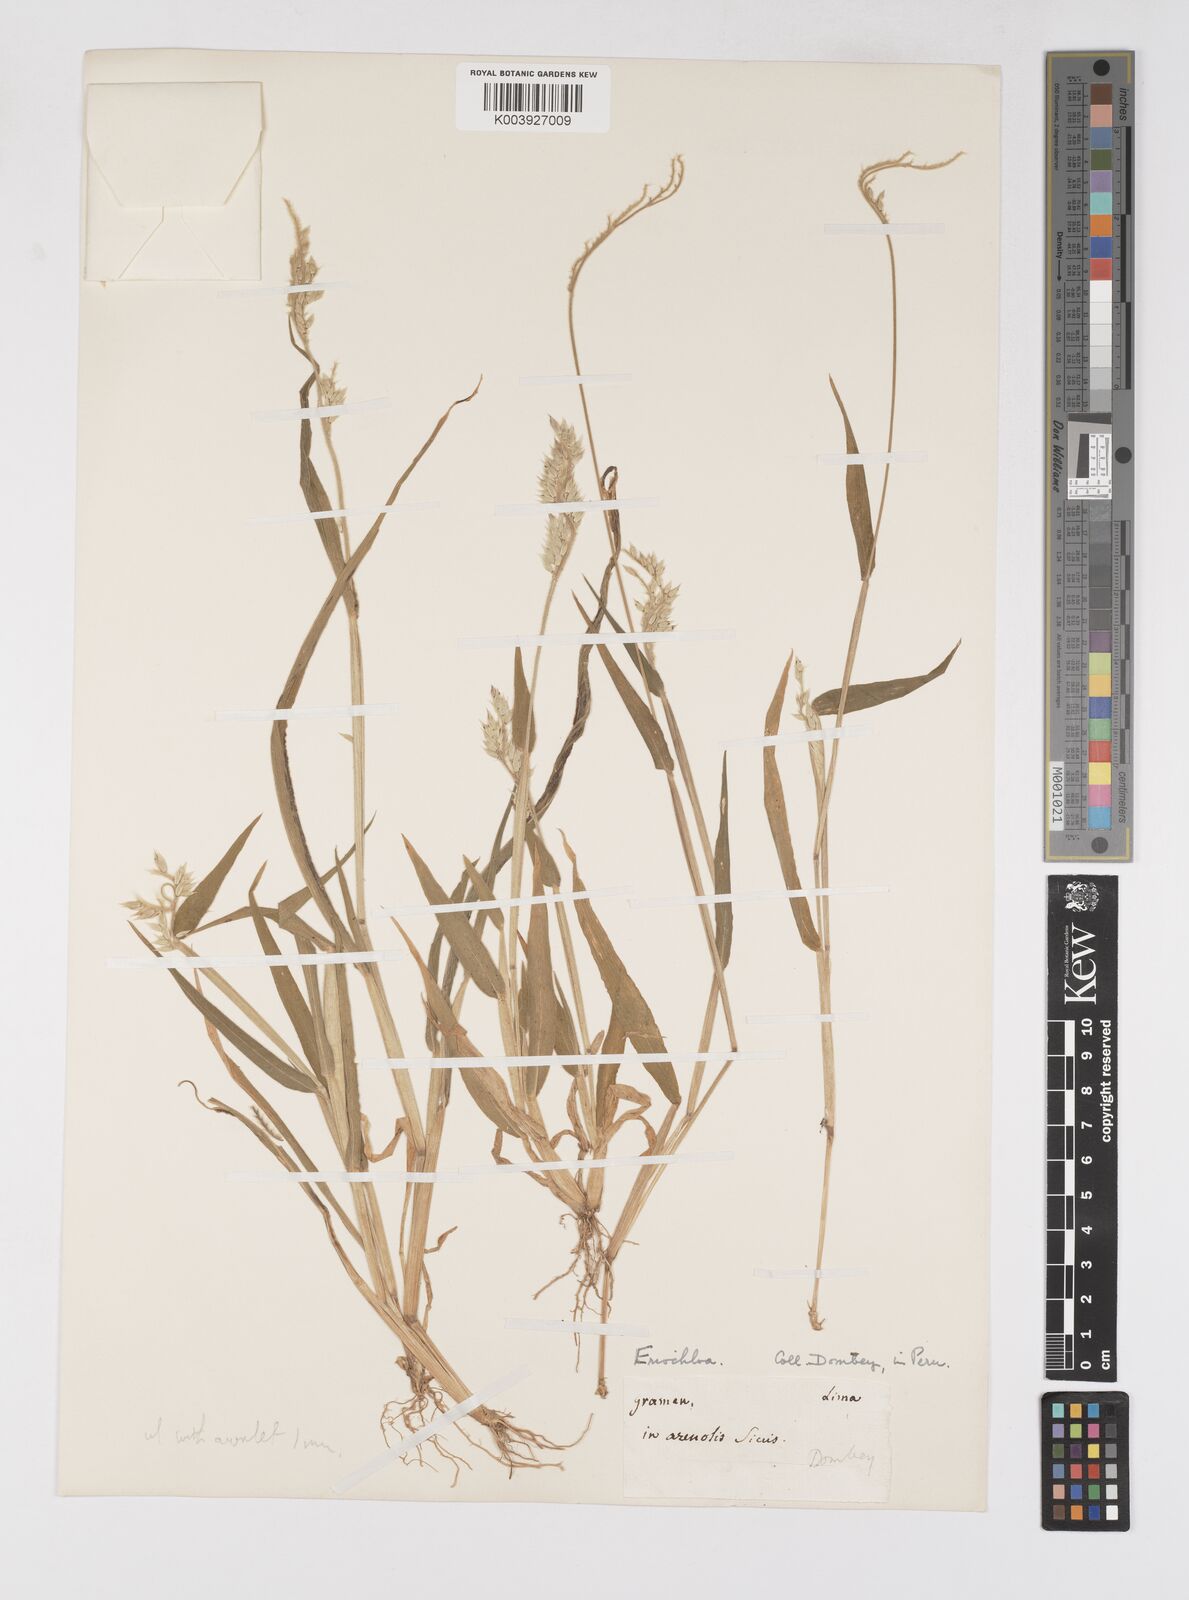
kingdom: Plantae
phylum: Tracheophyta
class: Liliopsida
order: Poales
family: Poaceae
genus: Eriochloa
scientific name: Eriochloa pacifica
